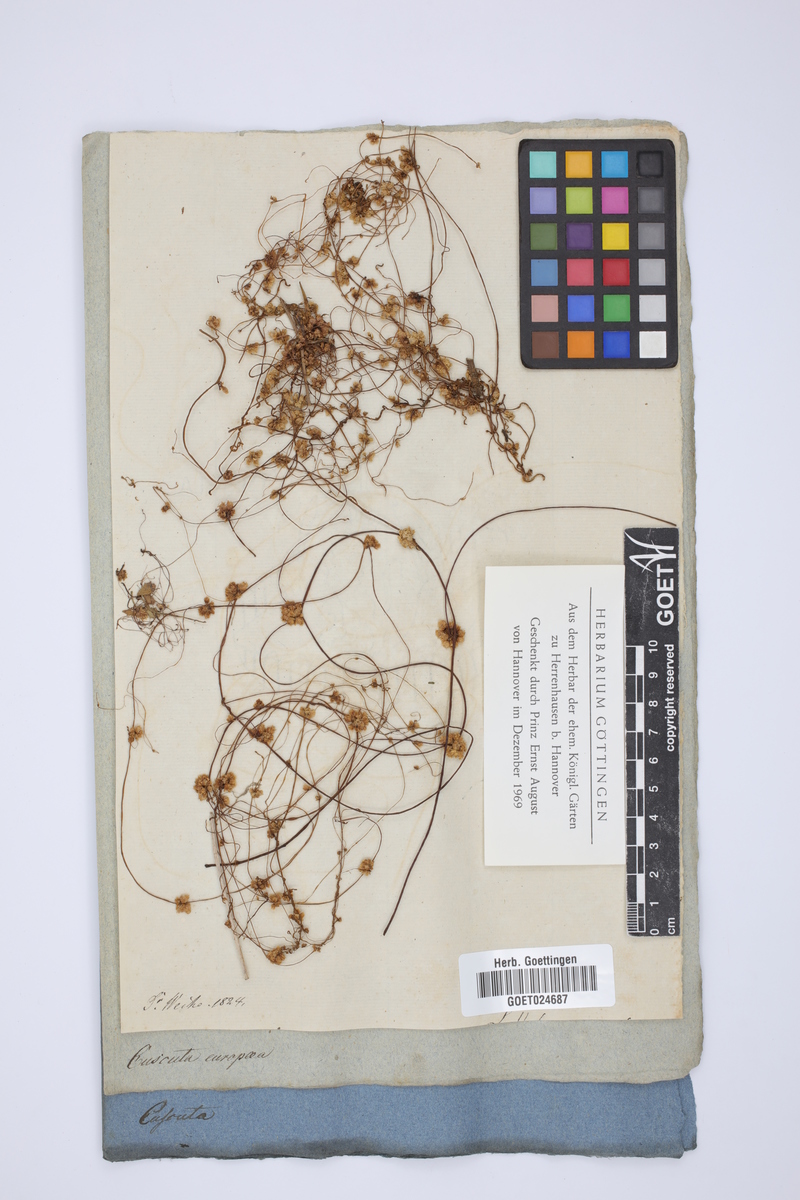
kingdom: Plantae
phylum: Tracheophyta
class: Magnoliopsida
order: Solanales
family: Convolvulaceae
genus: Cuscuta
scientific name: Cuscuta europaea
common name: Greater dodder
